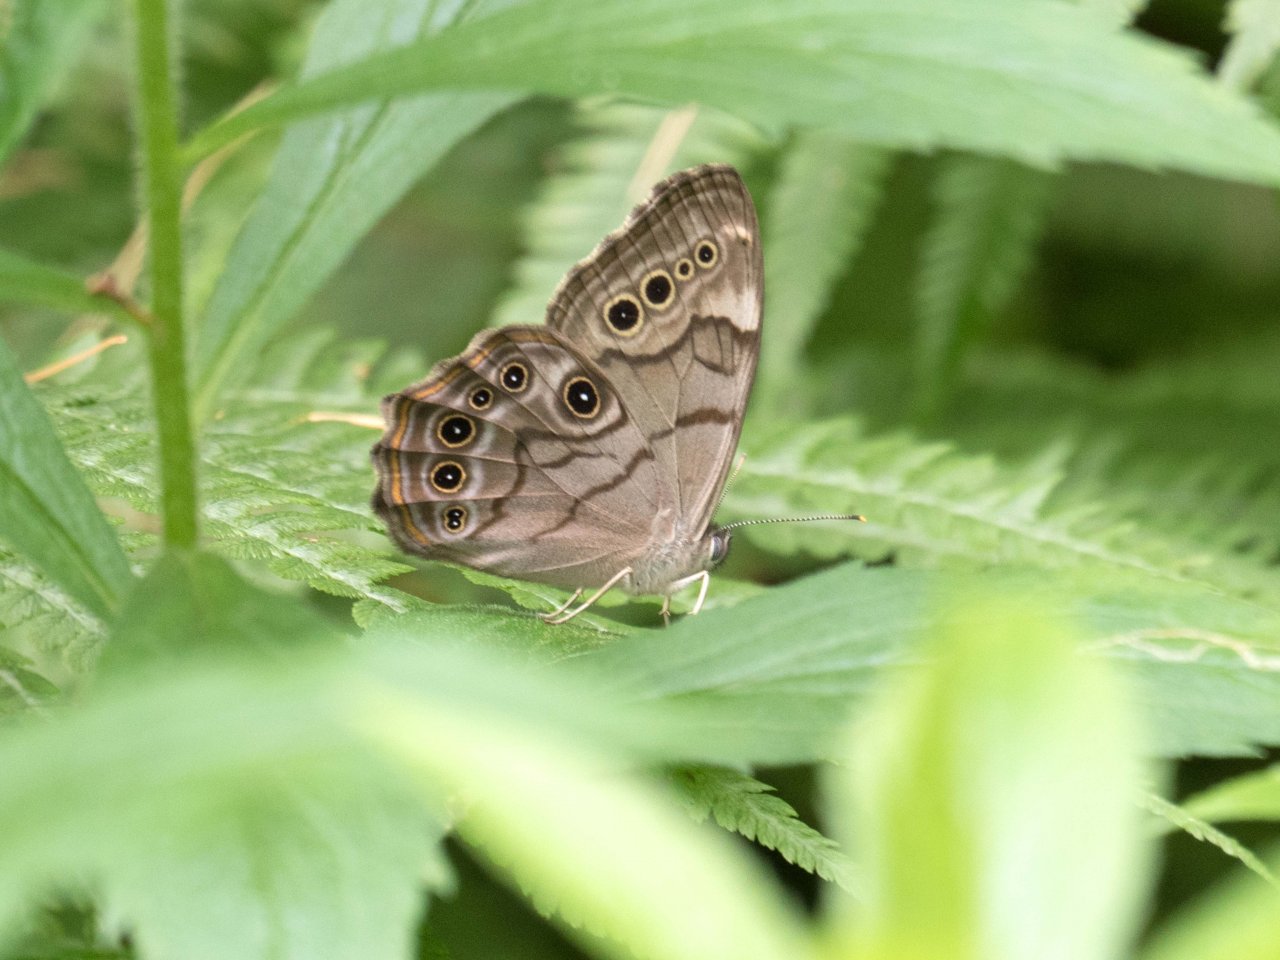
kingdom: Animalia
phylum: Arthropoda
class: Insecta
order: Lepidoptera
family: Nymphalidae
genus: Lethe
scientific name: Lethe anthedon
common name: Northern Pearly-Eye
